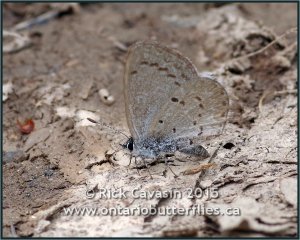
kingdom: Animalia
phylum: Arthropoda
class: Insecta
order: Lepidoptera
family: Lycaenidae
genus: Celastrina
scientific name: Celastrina ladon
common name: Spring Azure
